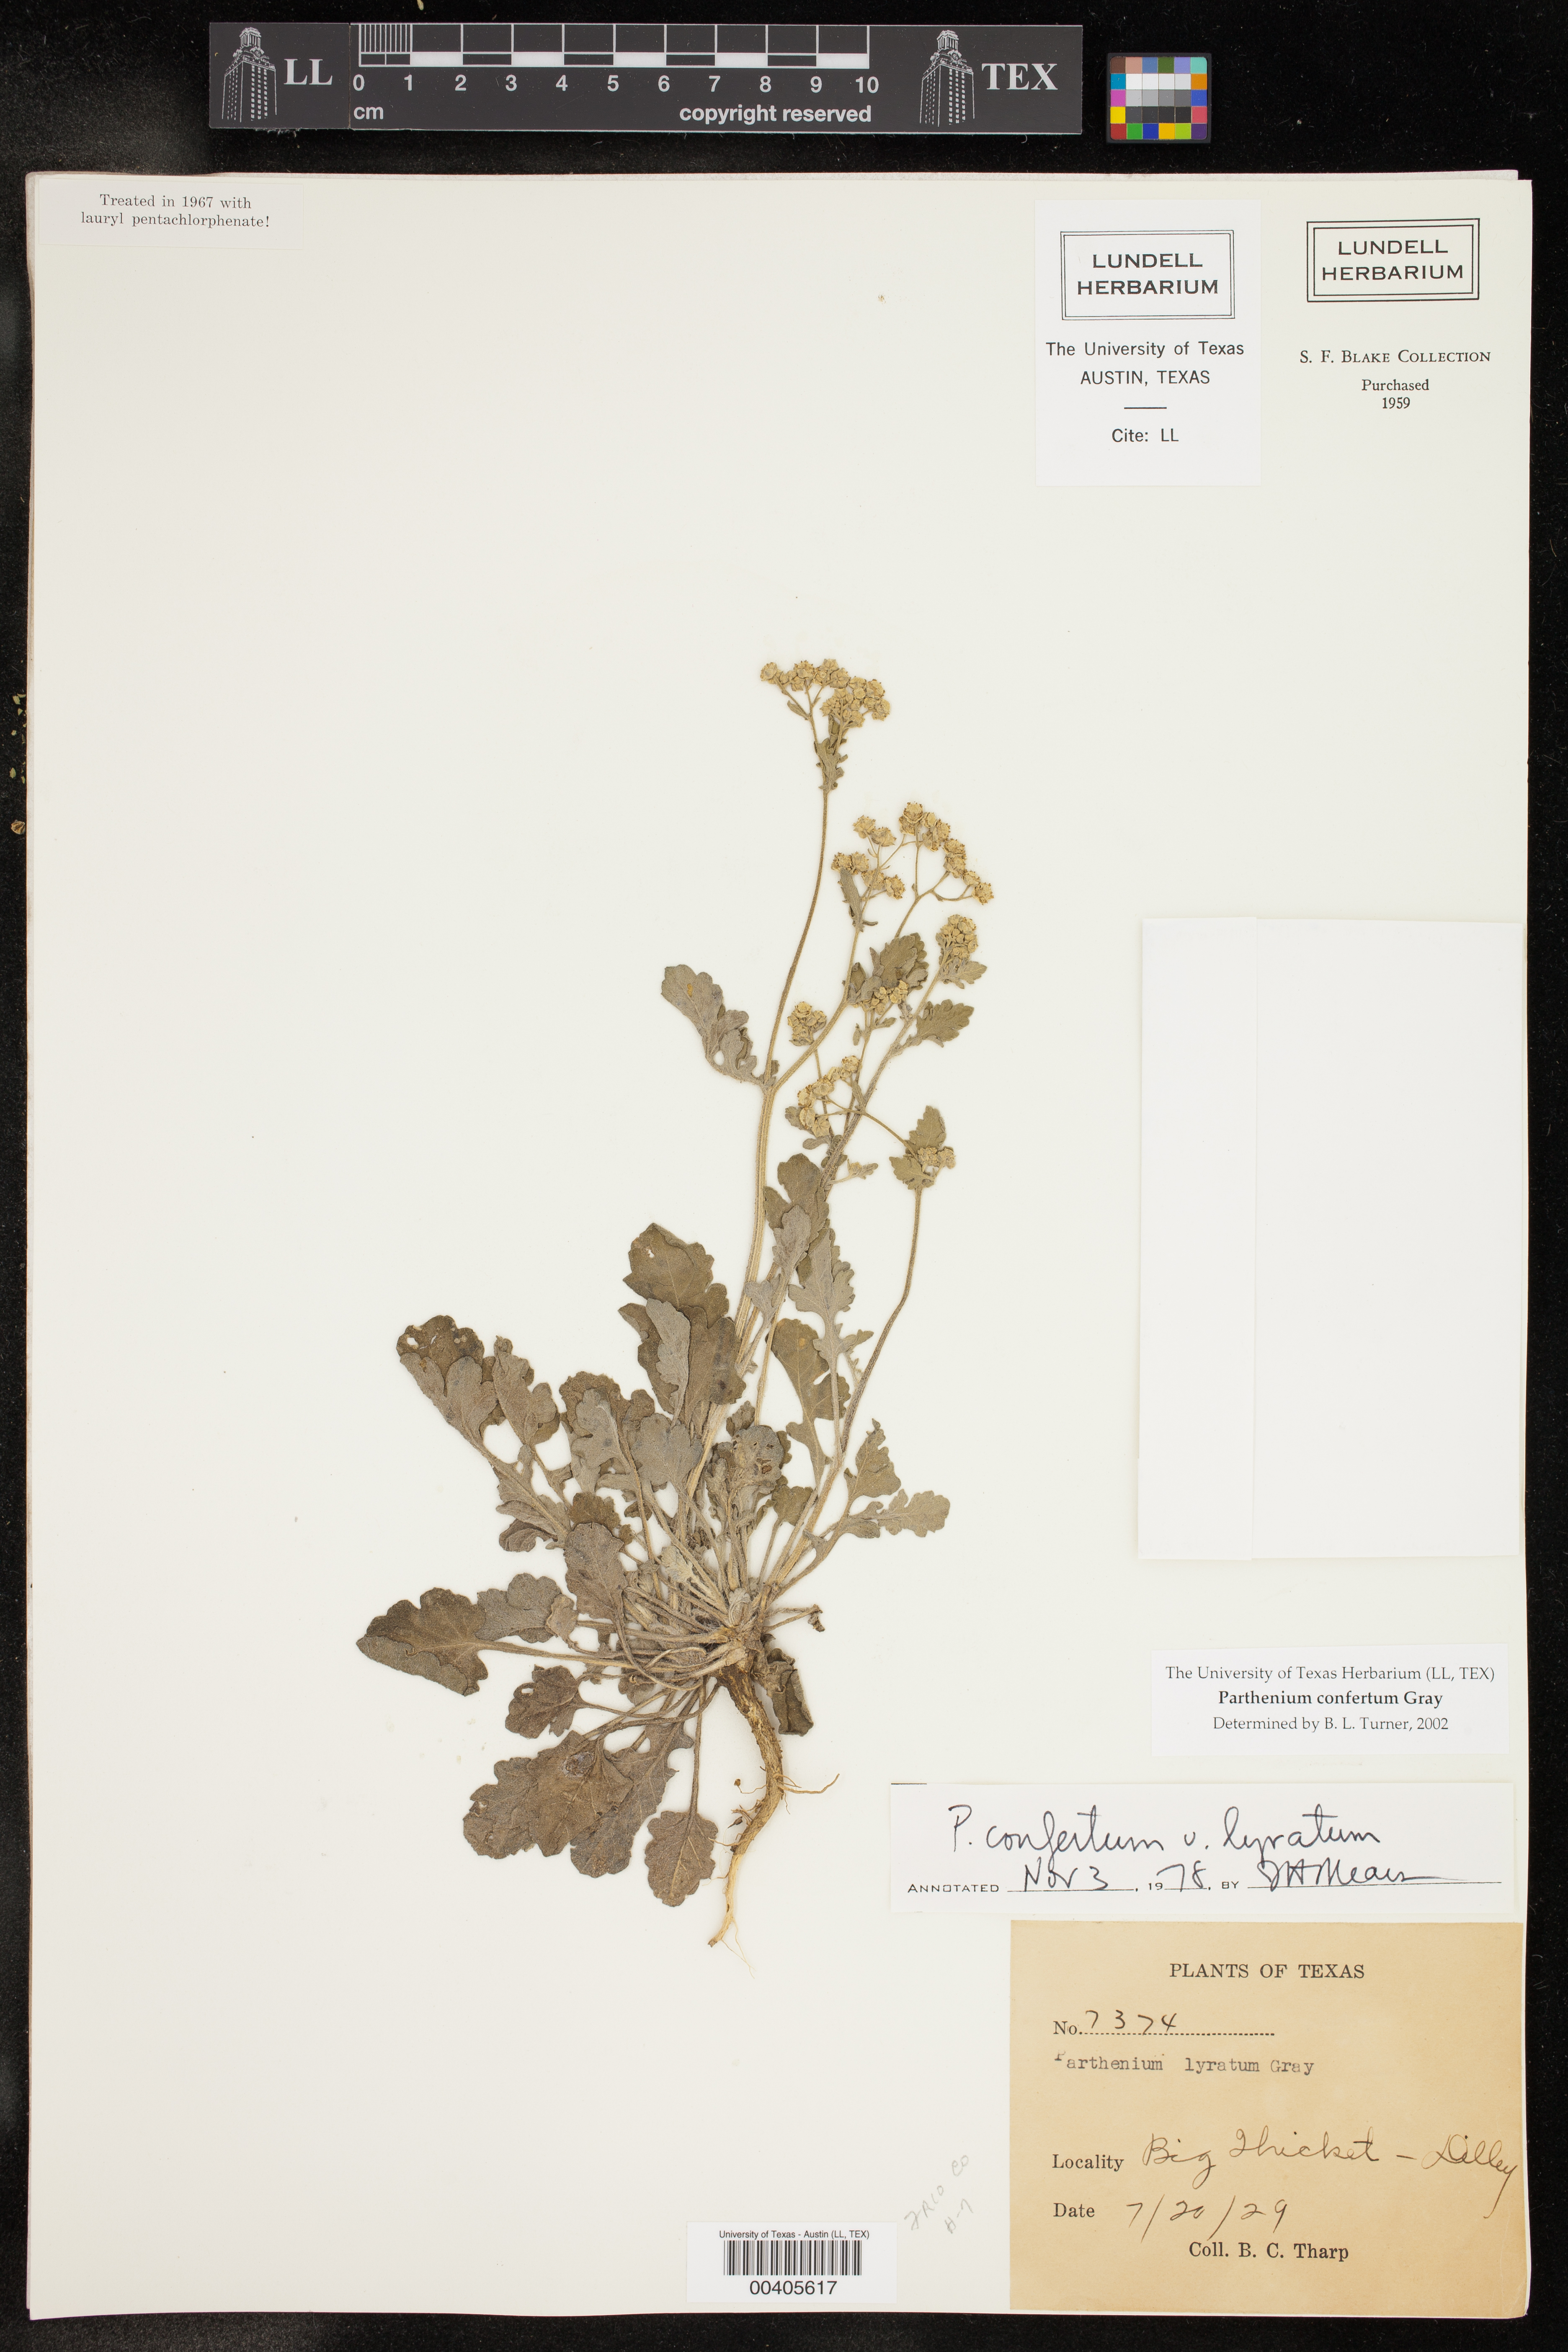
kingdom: Plantae
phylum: Tracheophyta
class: Magnoliopsida
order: Asterales
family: Asteraceae
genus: Parthenium
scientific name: Parthenium confertum
